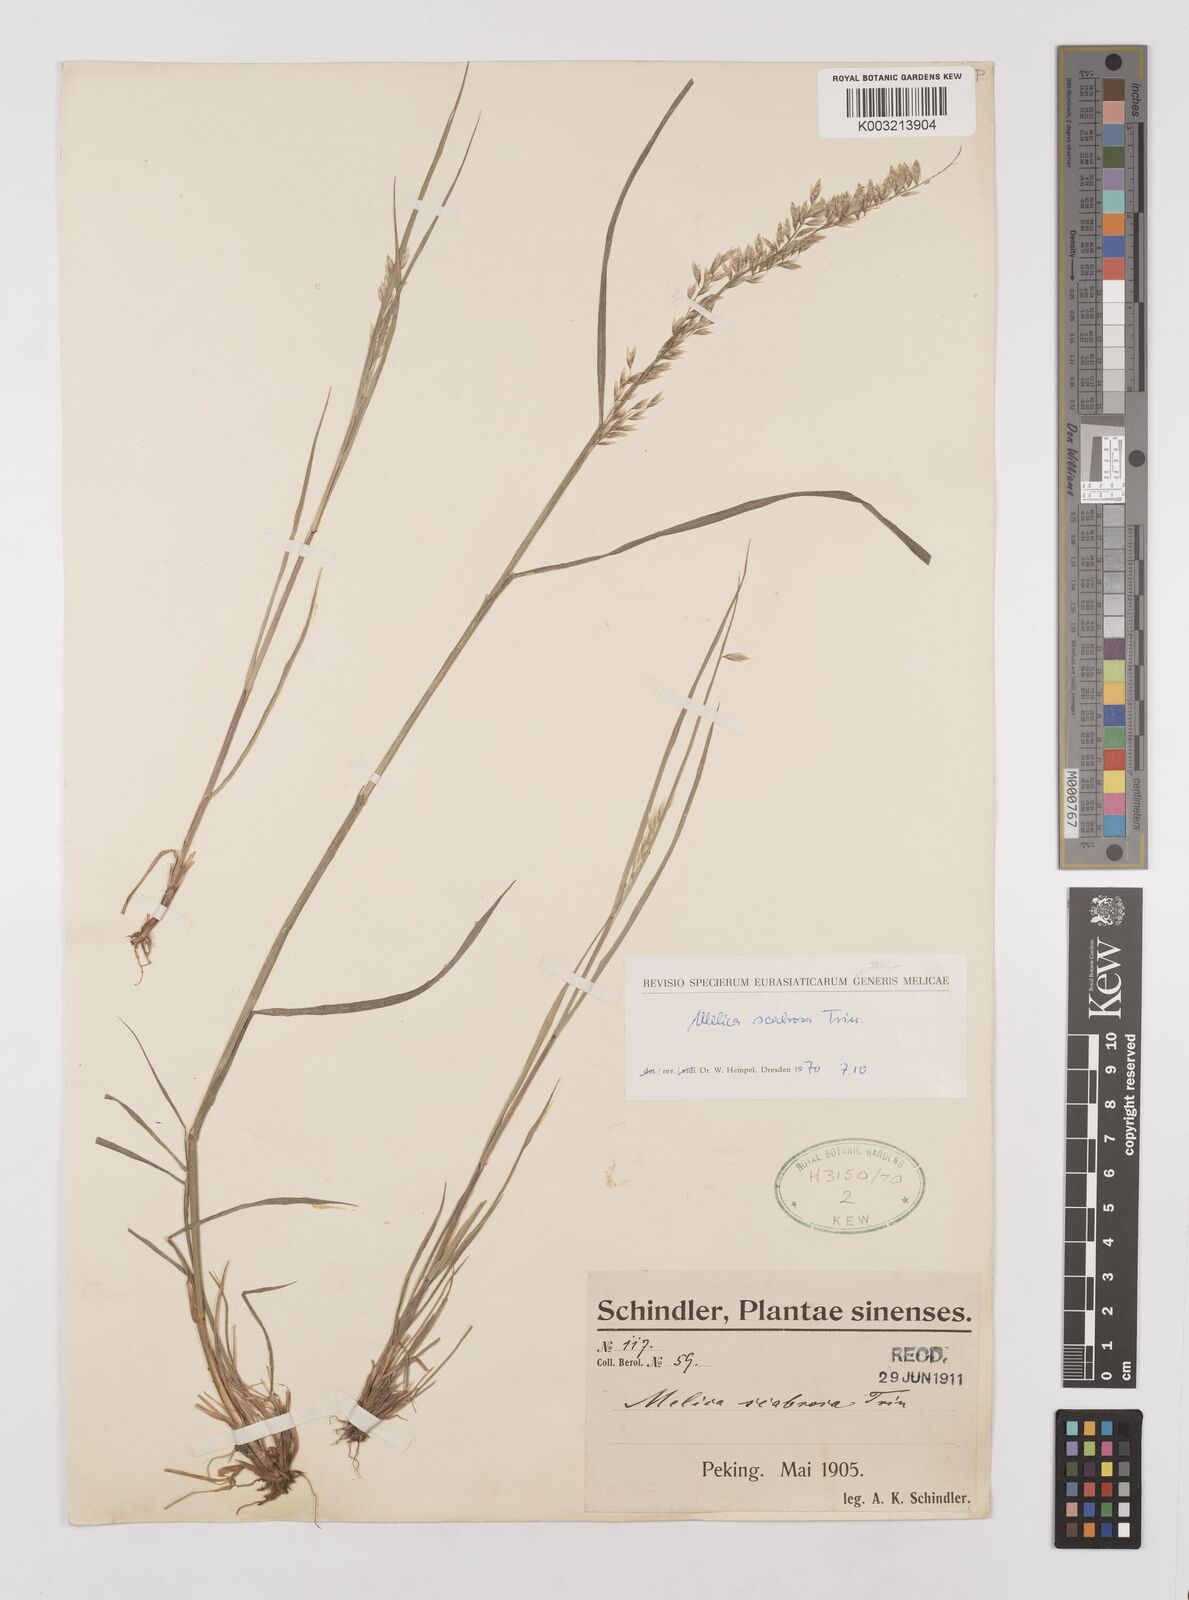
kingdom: Plantae
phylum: Tracheophyta
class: Liliopsida
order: Poales
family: Poaceae
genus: Melica
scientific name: Melica scabrosa
